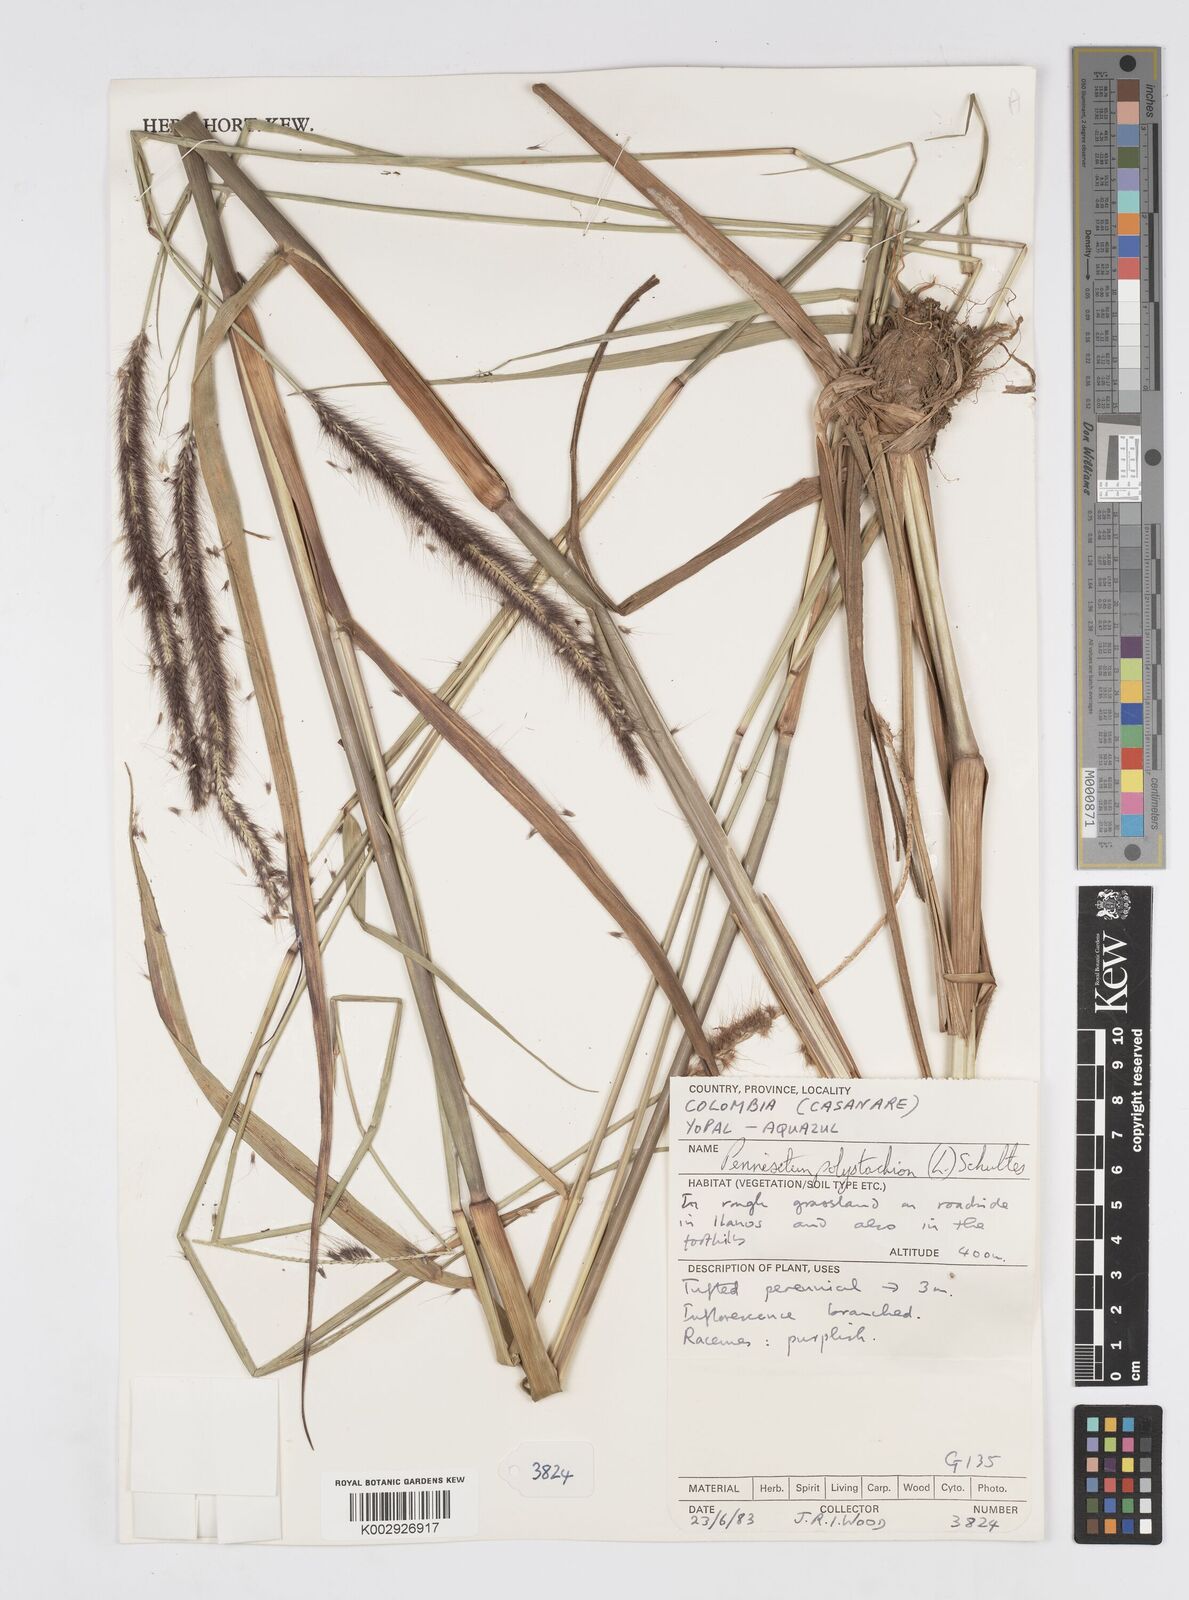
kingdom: Plantae
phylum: Tracheophyta
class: Liliopsida
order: Poales
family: Poaceae
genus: Setaria
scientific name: Setaria parviflora
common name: Knotroot bristle-grass
